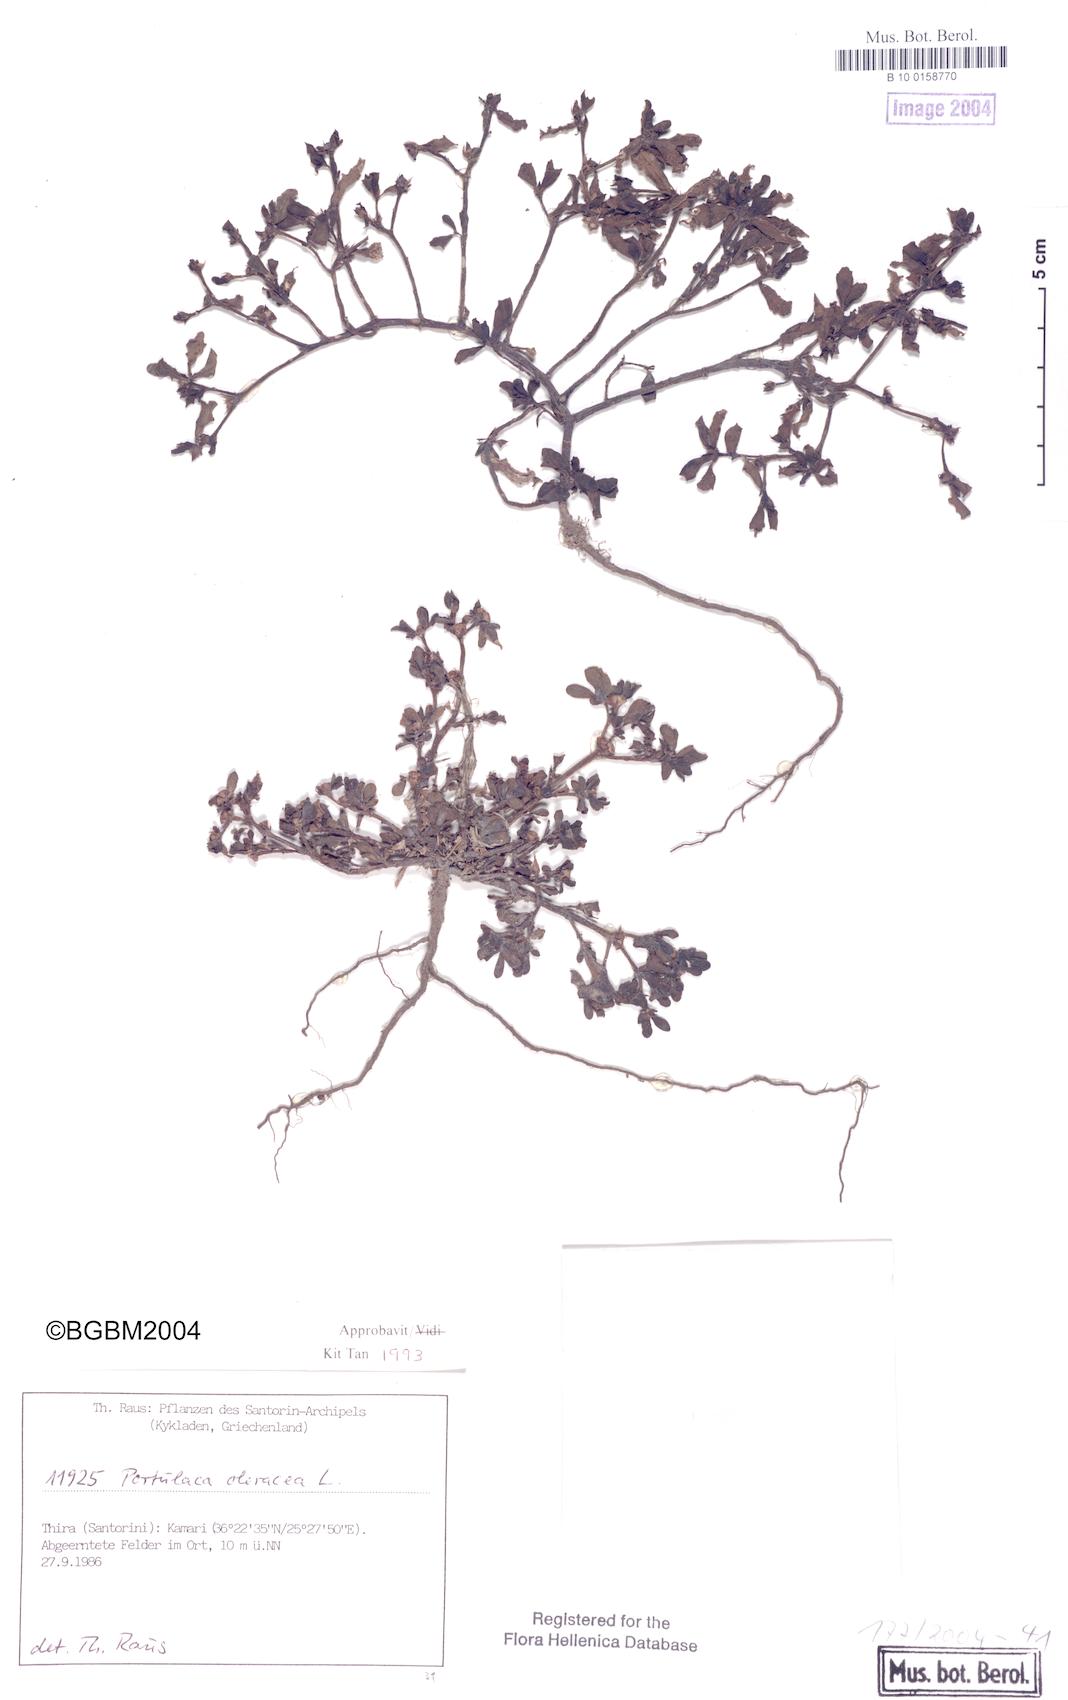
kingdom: Plantae
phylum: Tracheophyta
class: Magnoliopsida
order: Caryophyllales
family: Portulacaceae
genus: Portulaca
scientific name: Portulaca oleracea
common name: Common purslane
